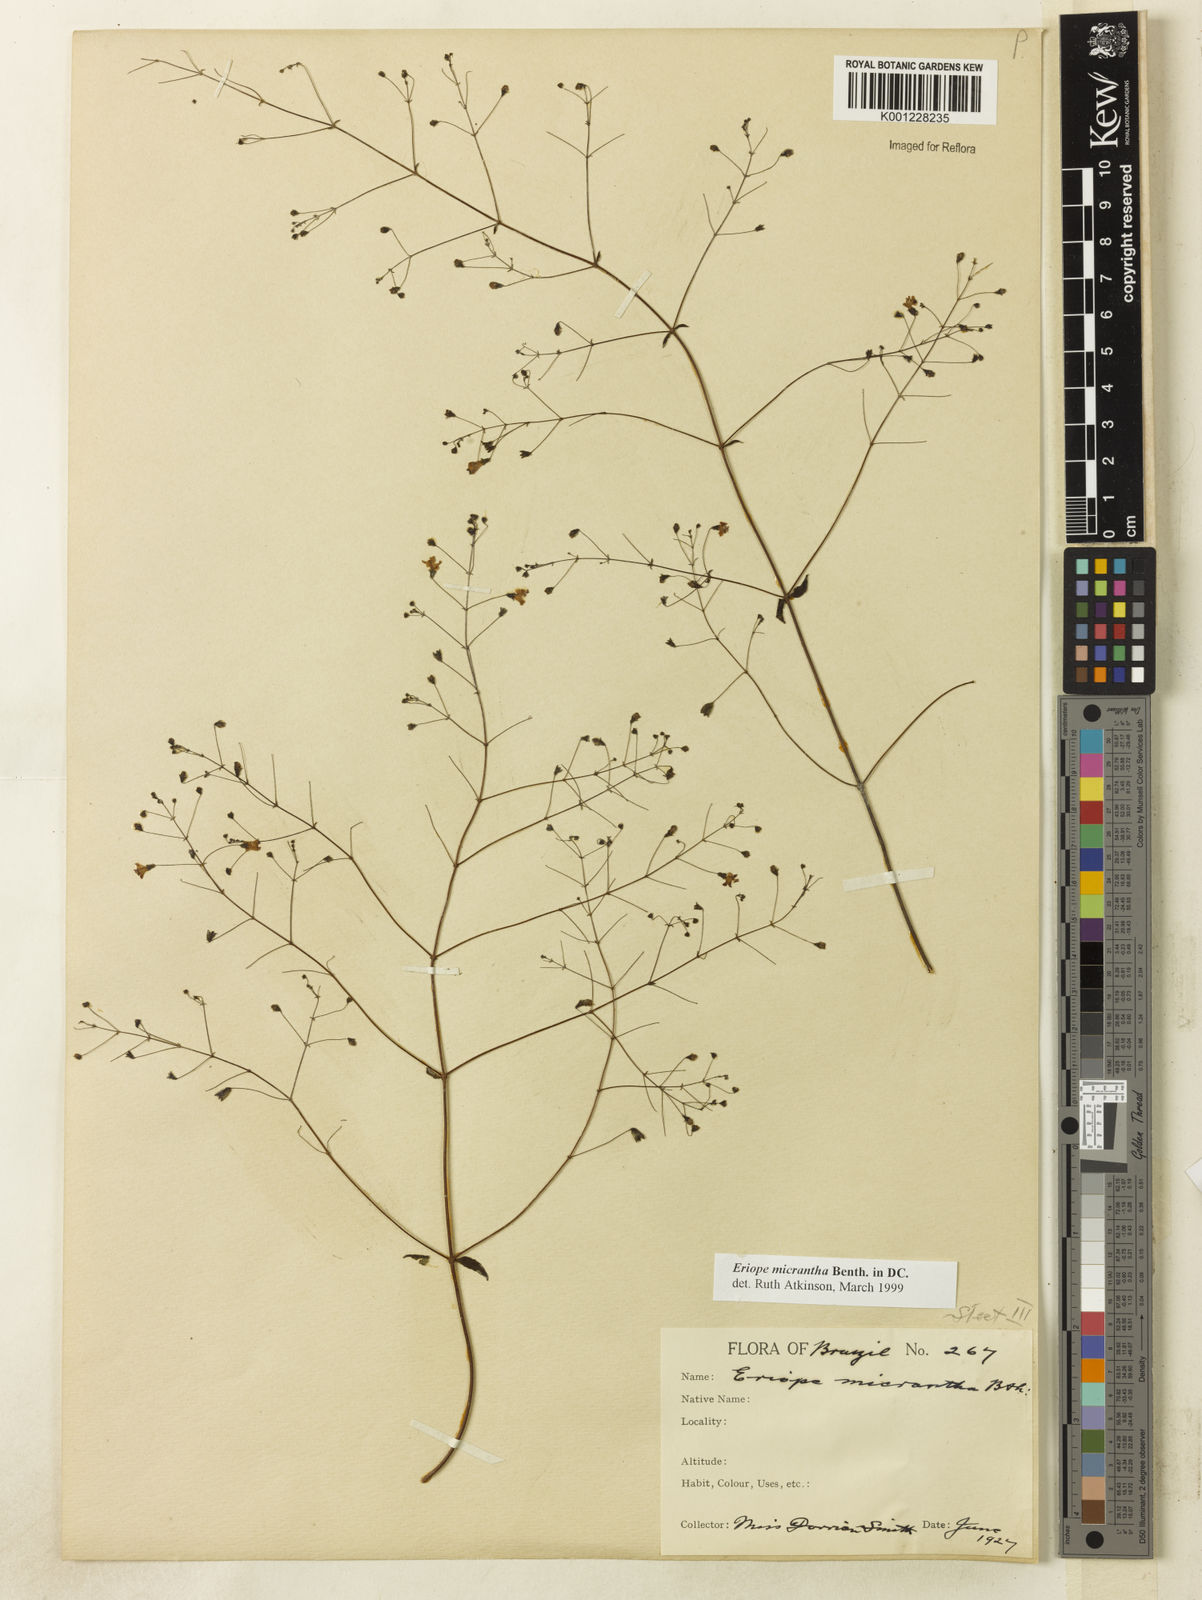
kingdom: Plantae
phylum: Tracheophyta
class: Magnoliopsida
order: Lamiales
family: Lamiaceae
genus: Hypenia
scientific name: Hypenia micrantha
